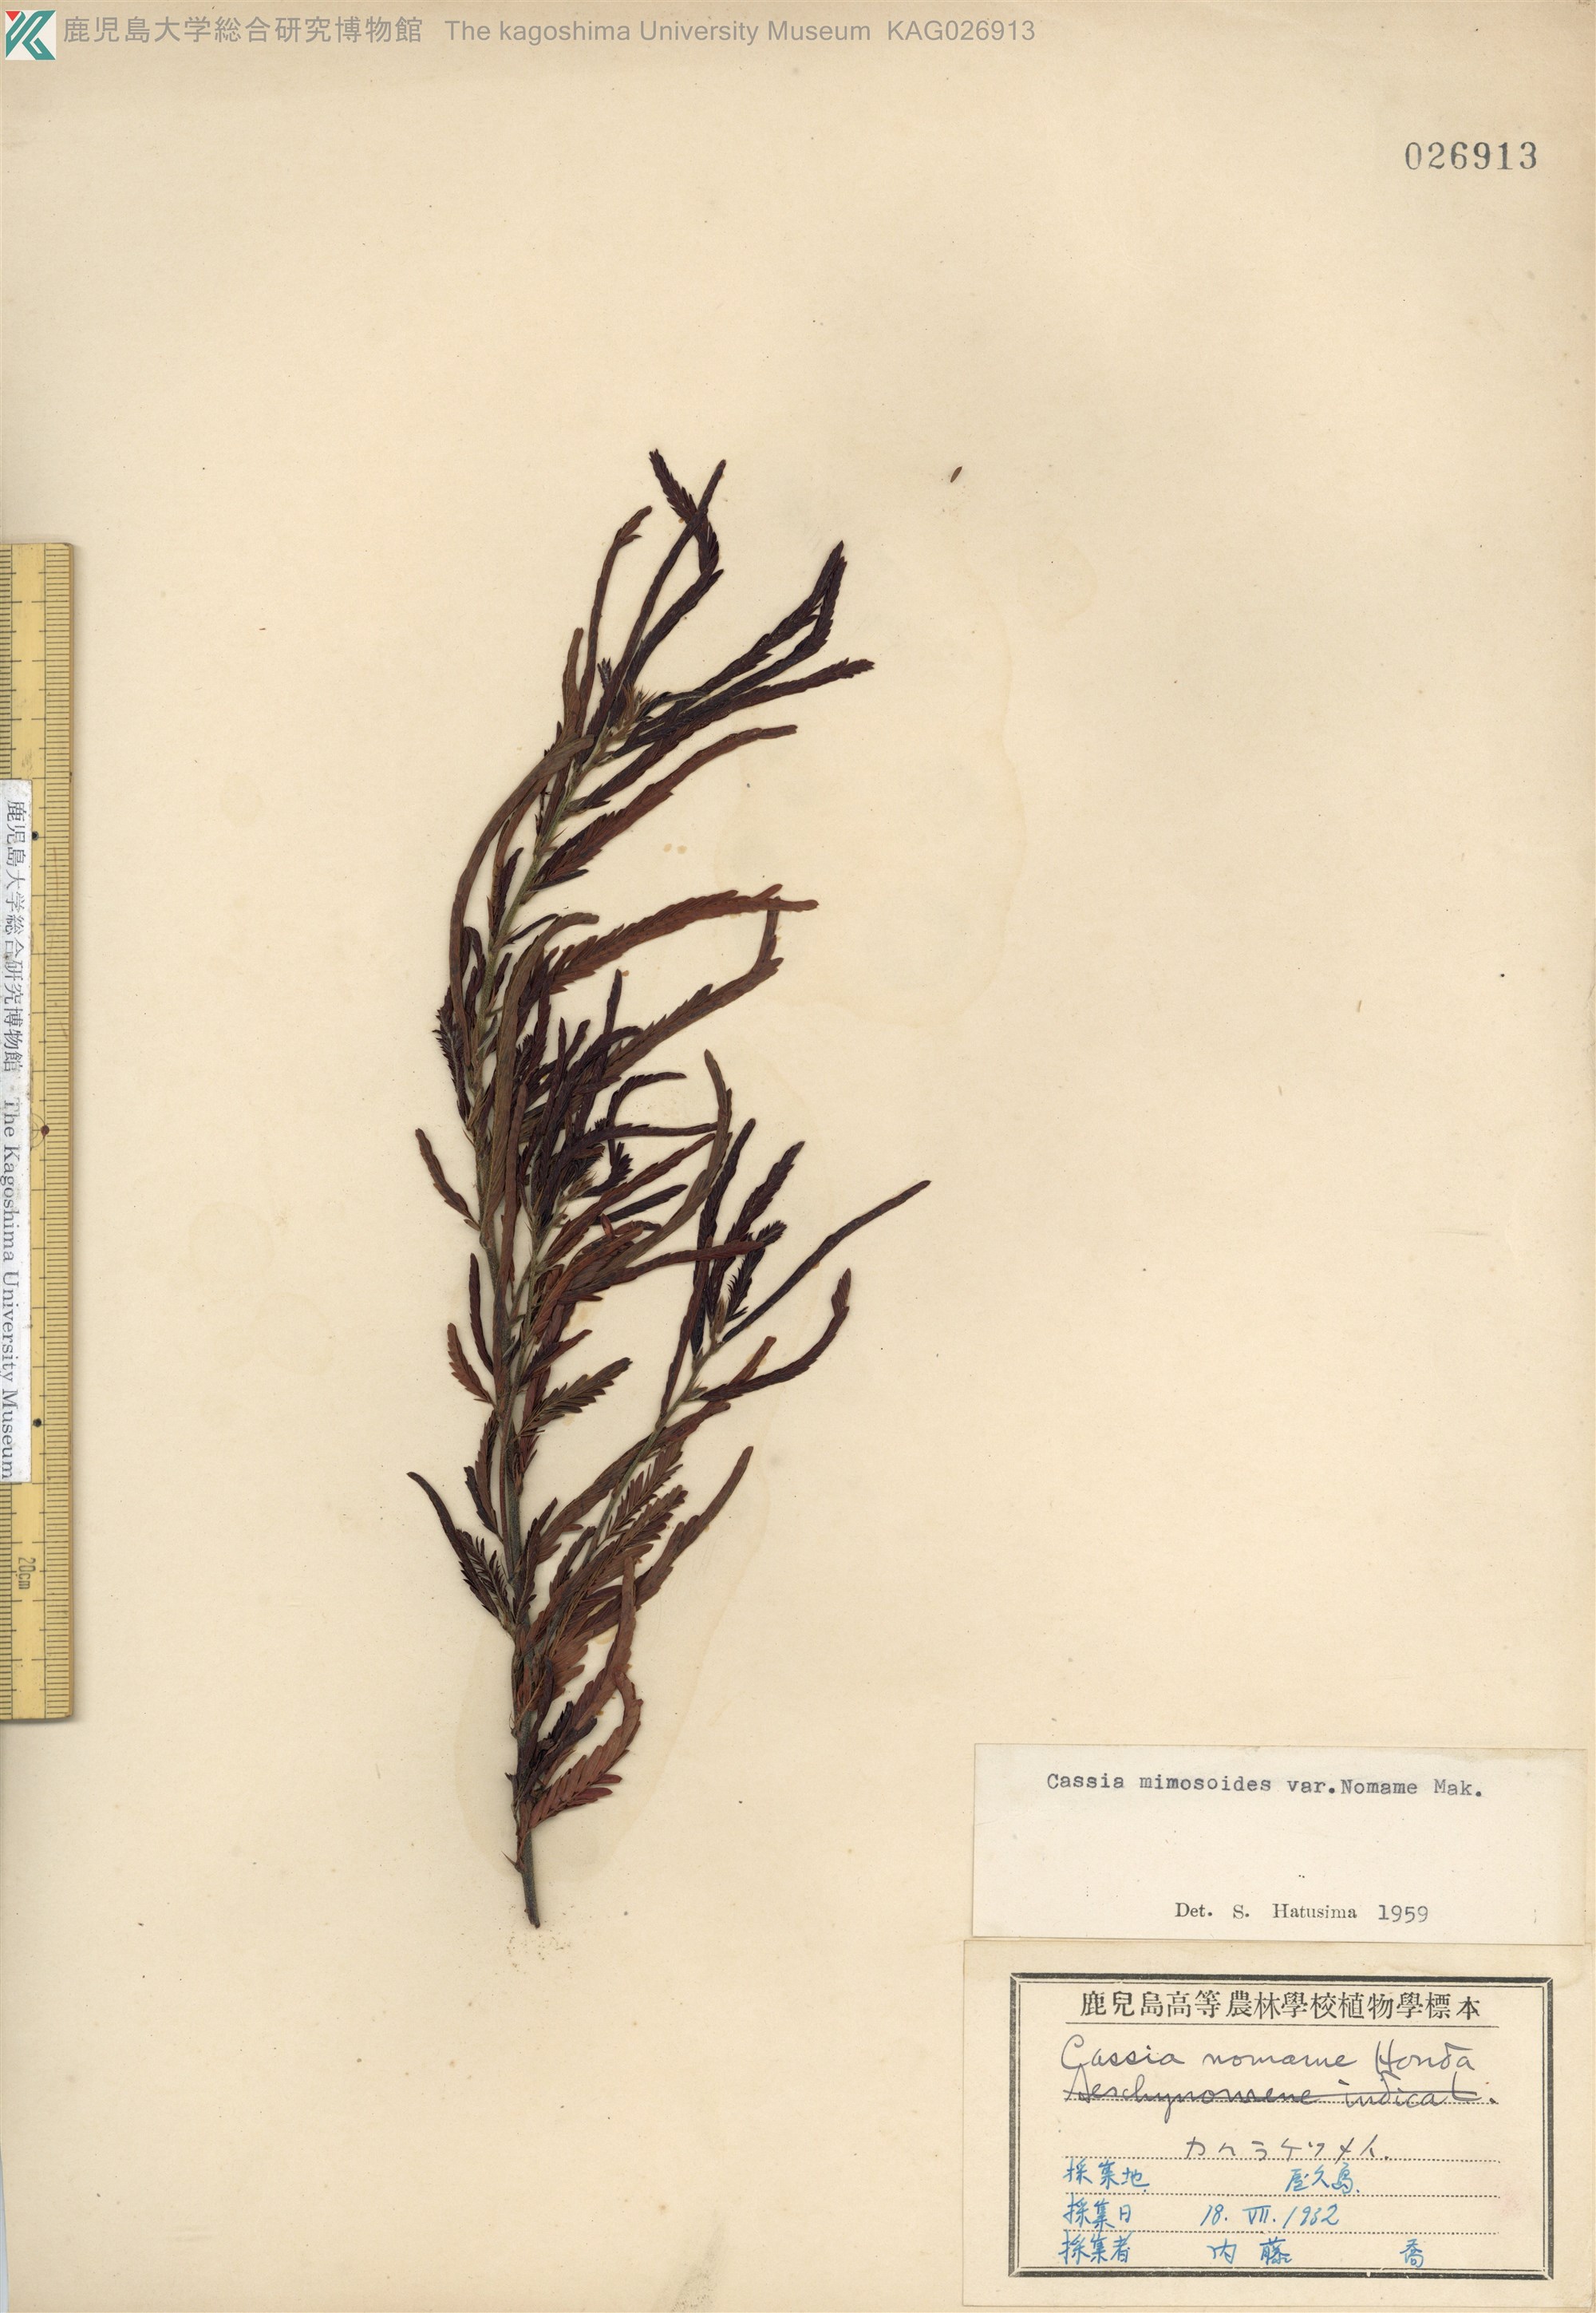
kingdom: Plantae
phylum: Tracheophyta
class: Magnoliopsida
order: Fabales
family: Fabaceae
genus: Chamaecrista
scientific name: Chamaecrista nomame
